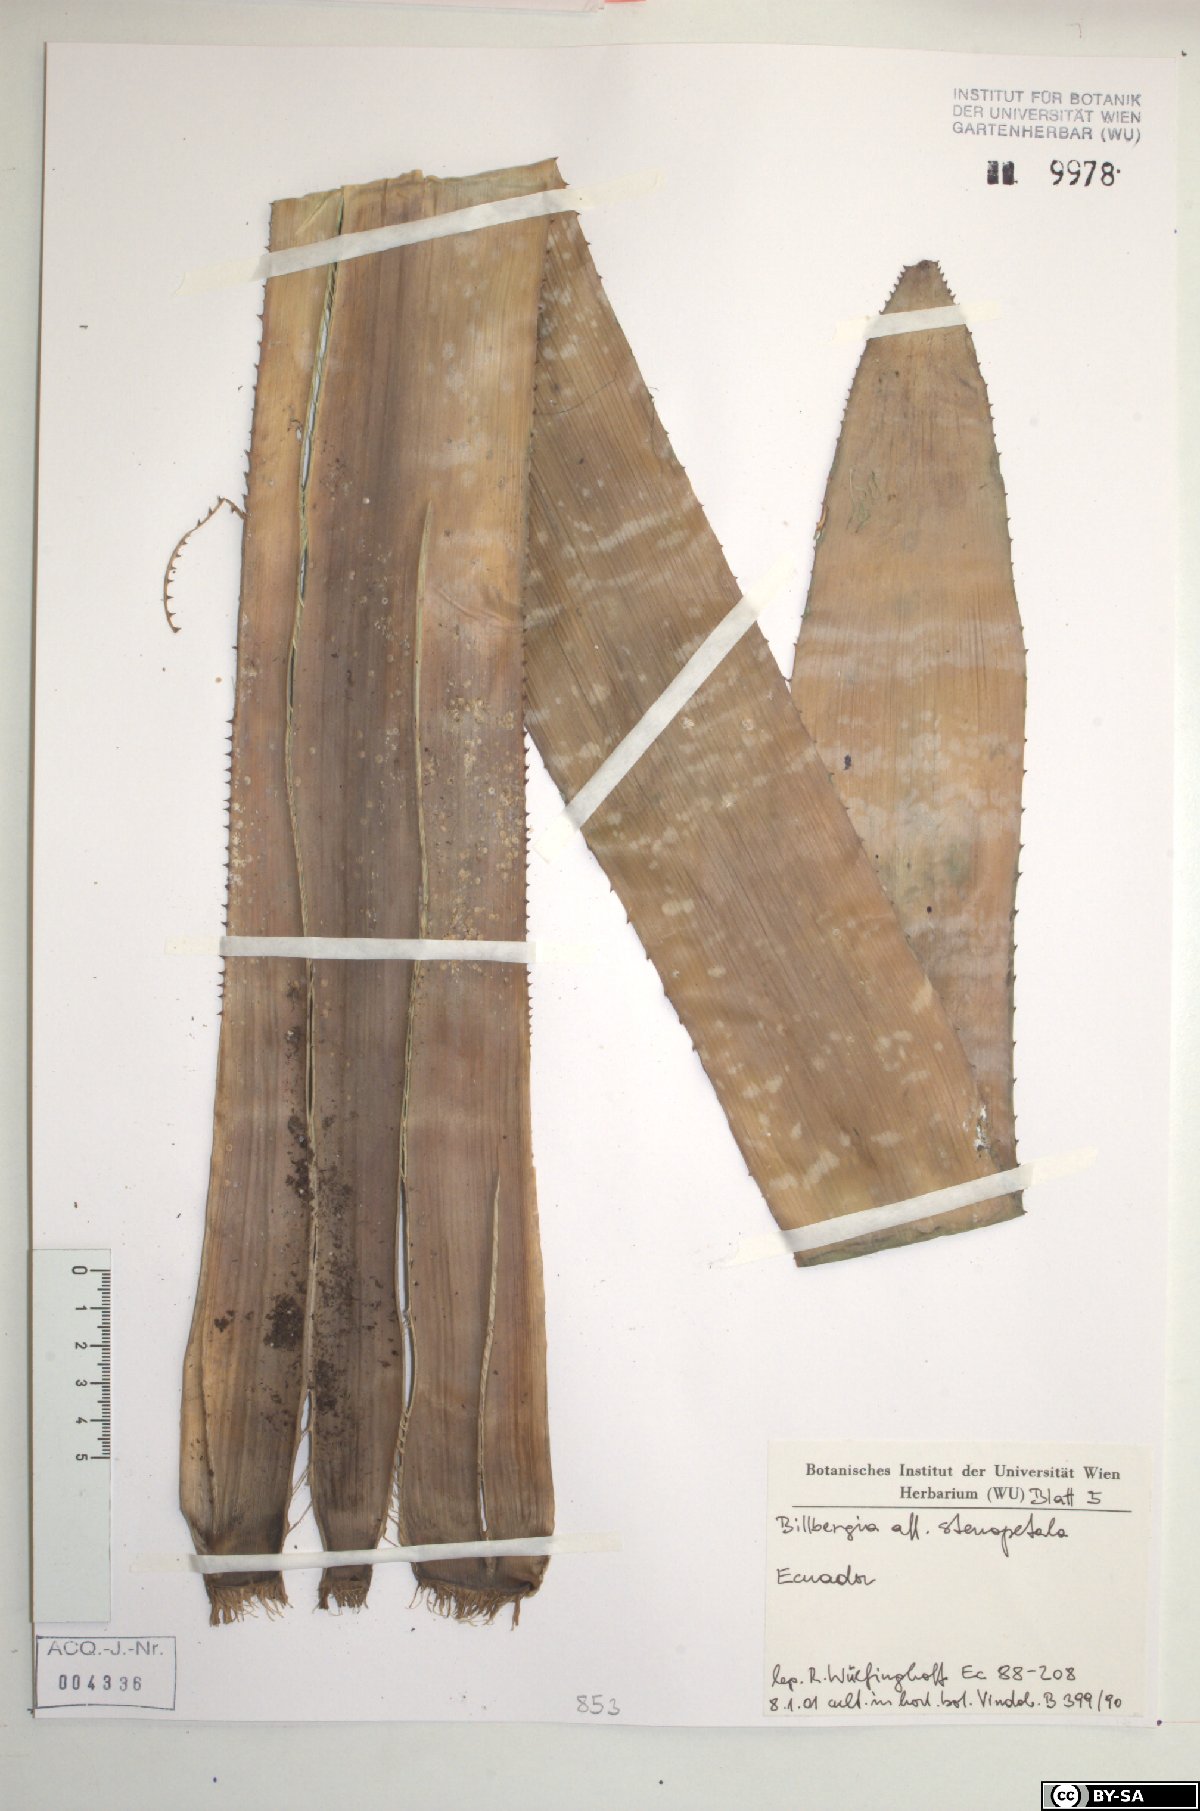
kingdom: Plantae
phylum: Tracheophyta
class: Liliopsida
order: Poales
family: Bromeliaceae
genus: Billbergia
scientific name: Billbergia stenopetala
